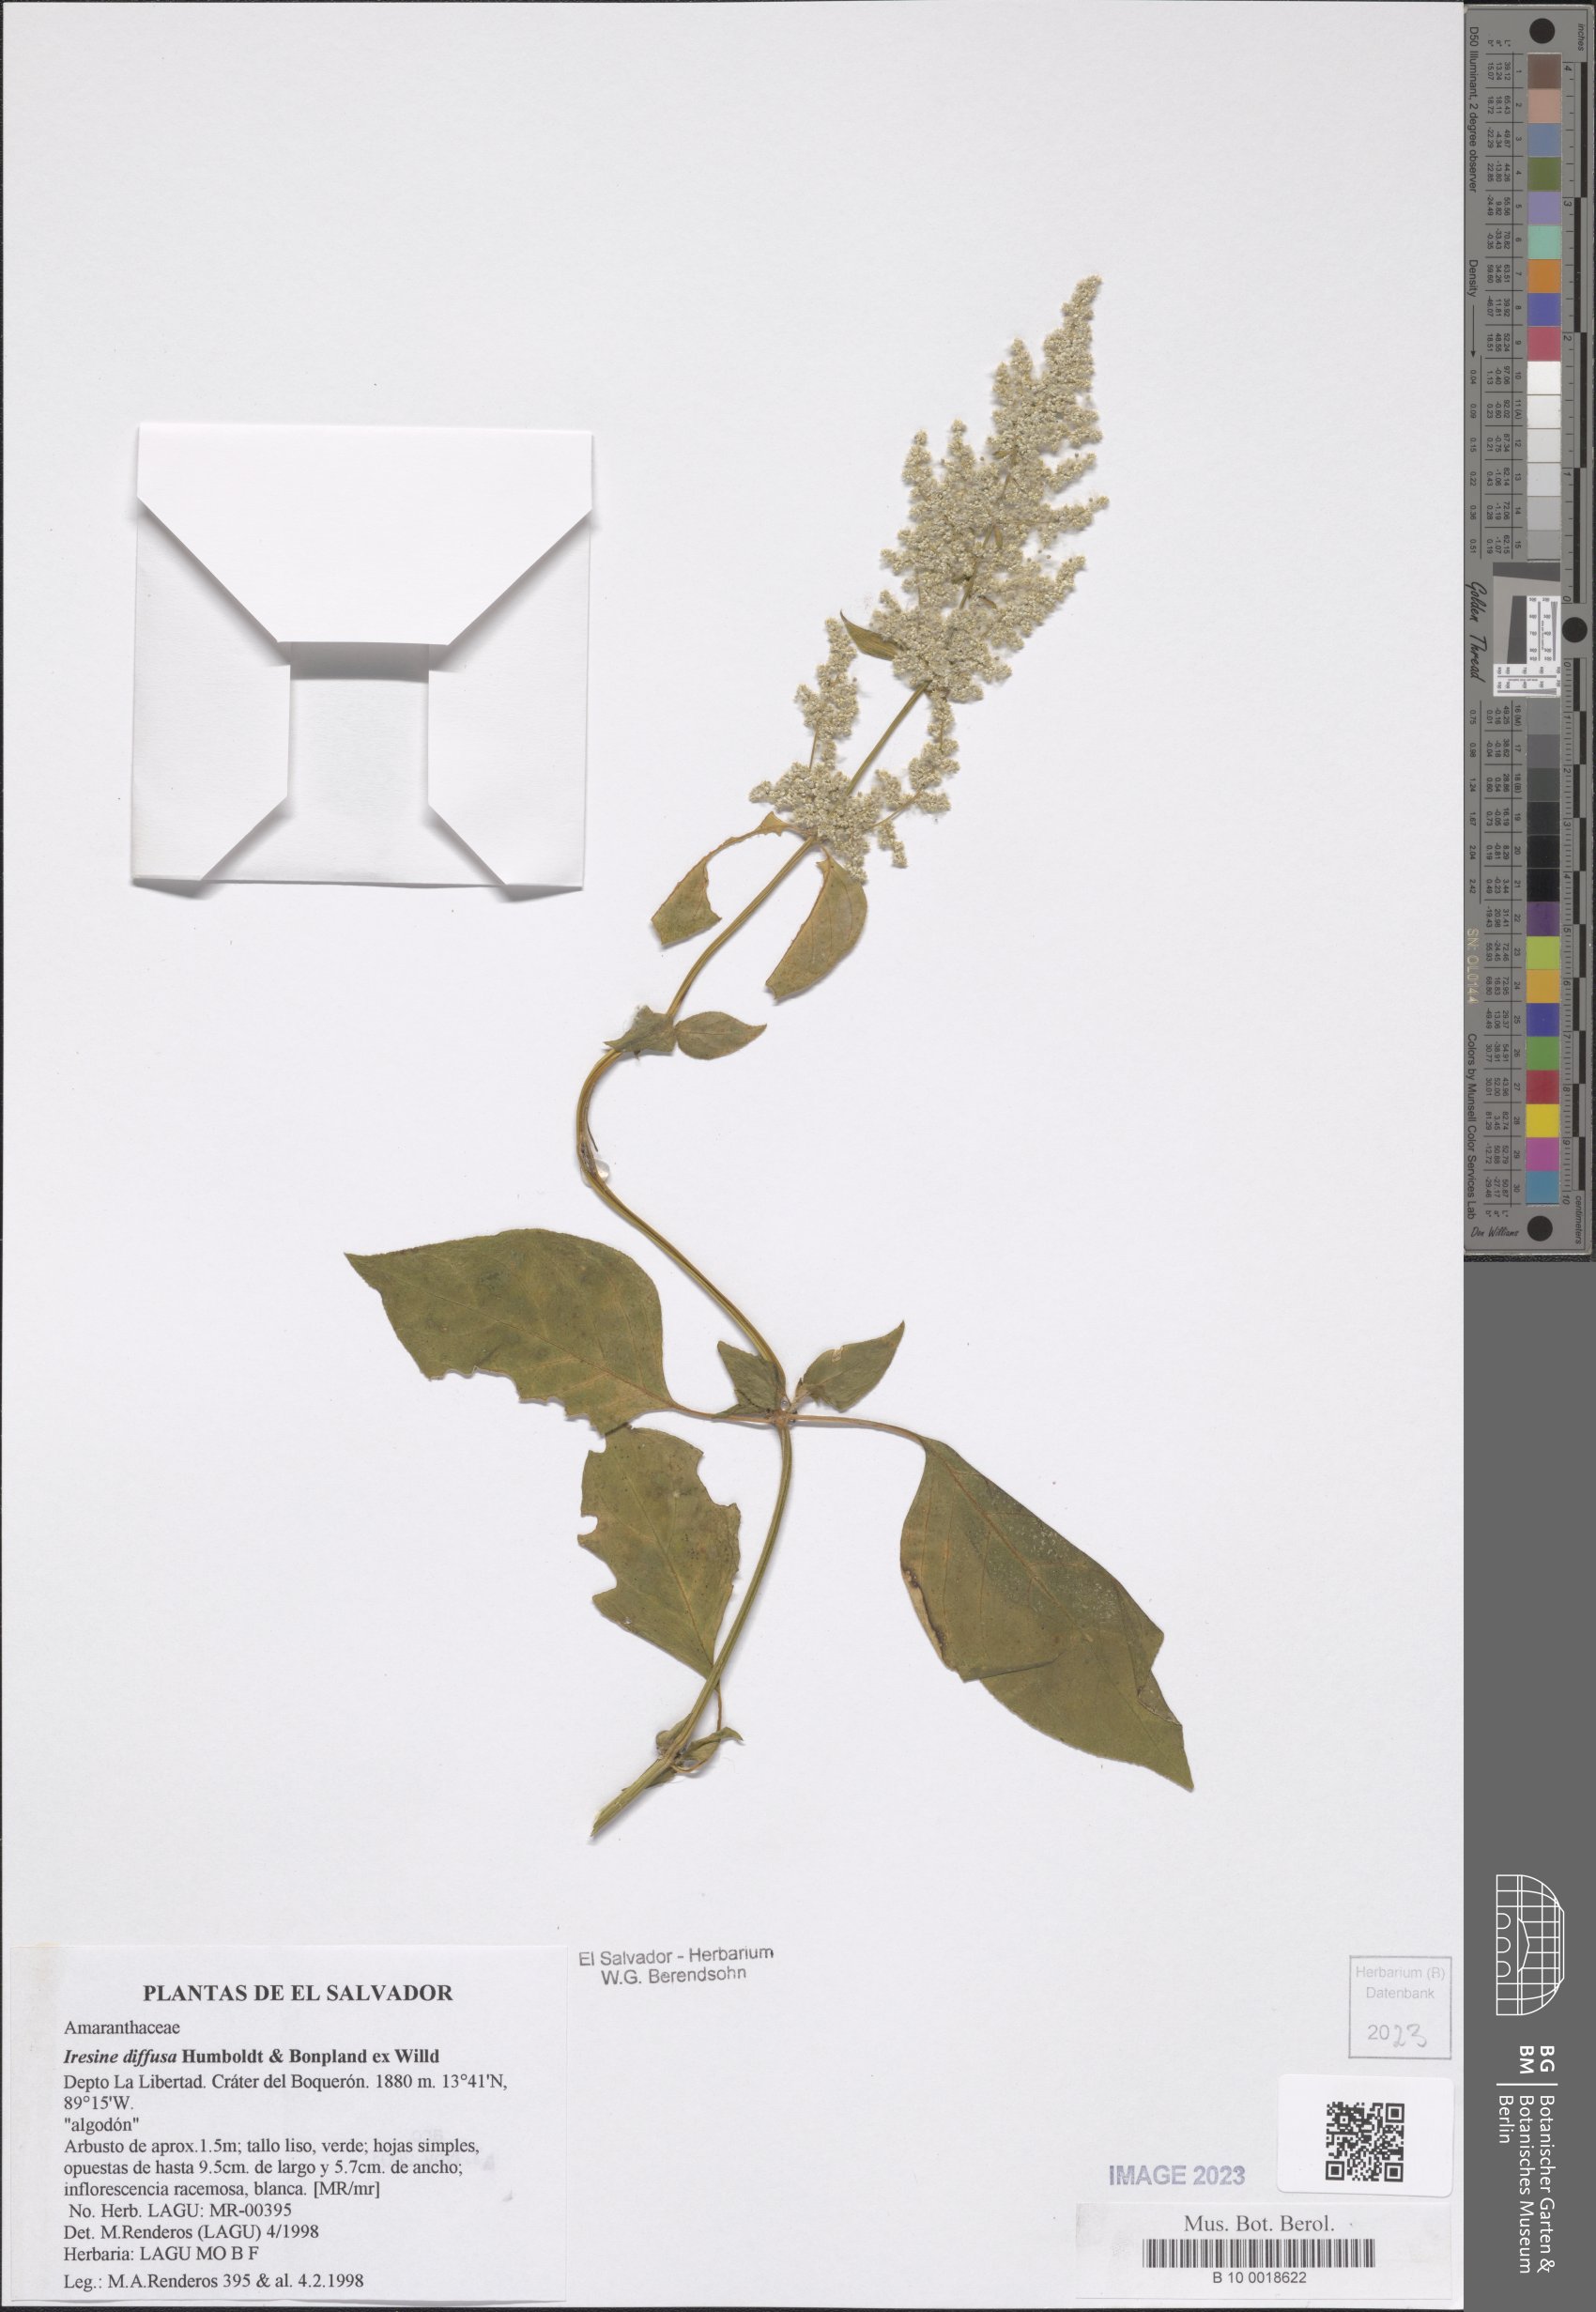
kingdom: Plantae
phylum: Tracheophyta
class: Magnoliopsida
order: Caryophyllales
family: Amaranthaceae
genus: Iresine
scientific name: Iresine diffusa
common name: Juba's-bush
